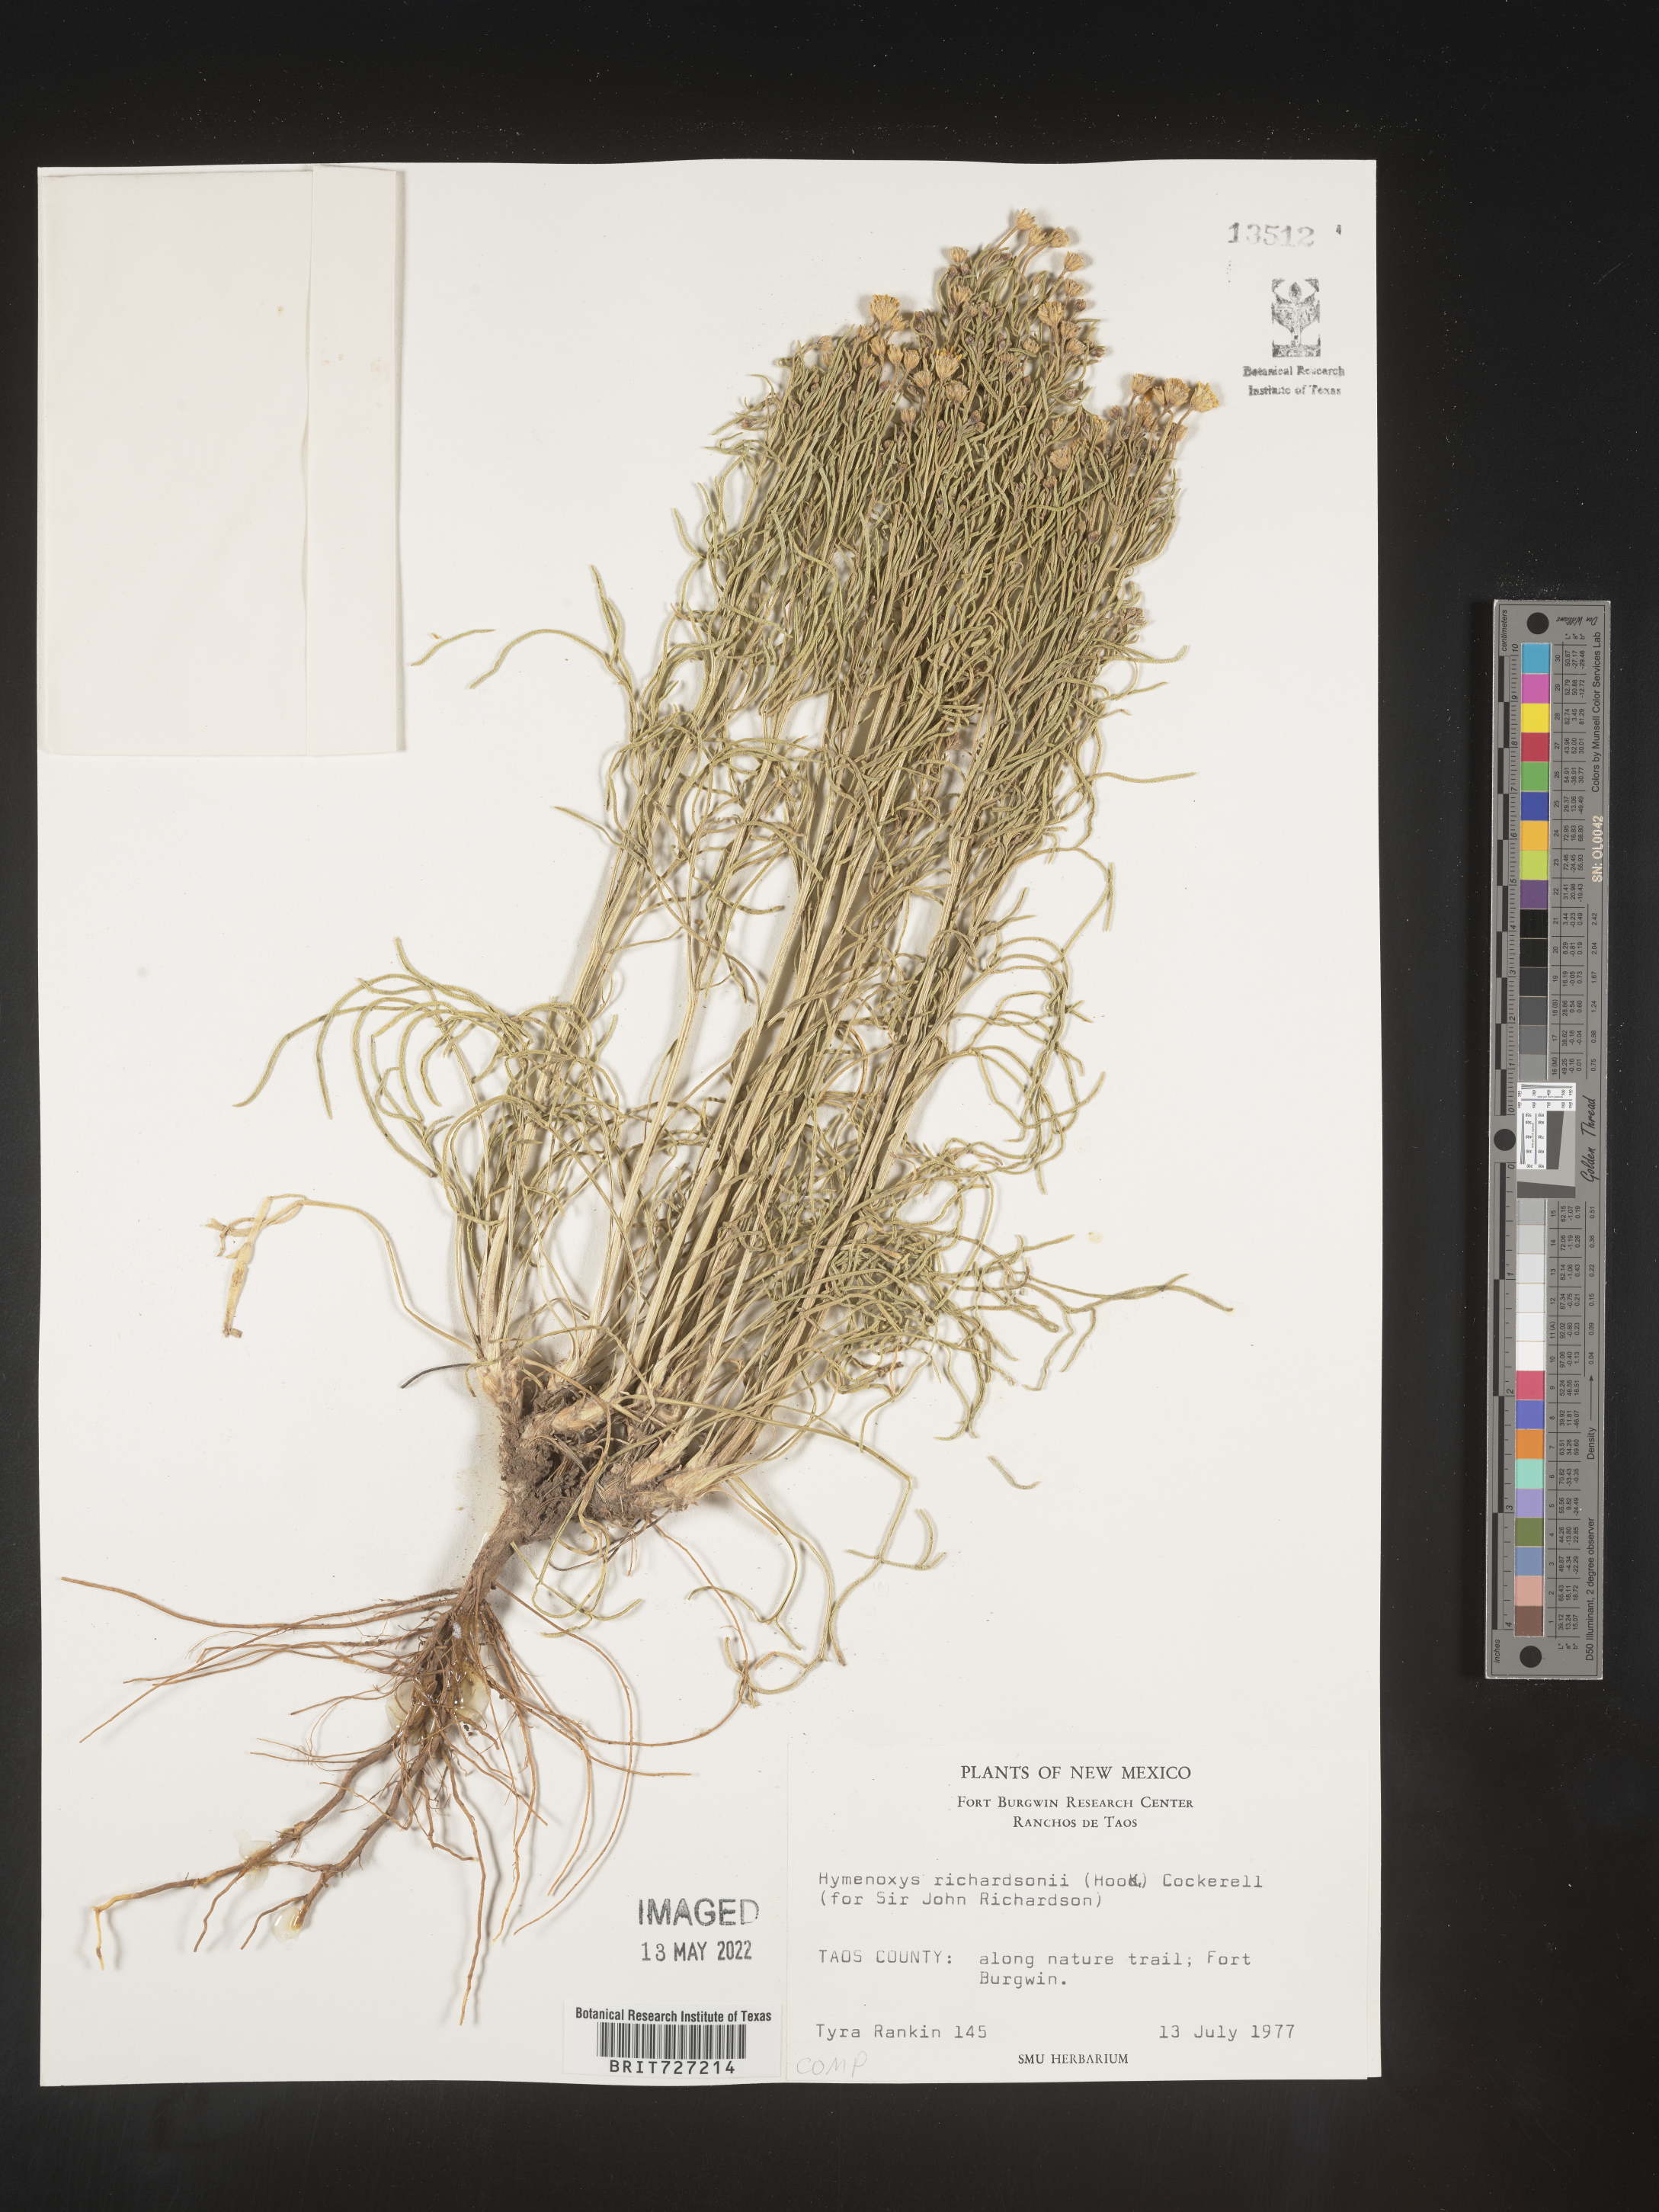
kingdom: Plantae
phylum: Tracheophyta
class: Magnoliopsida
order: Asterales
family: Asteraceae
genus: Hymenoxys
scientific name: Hymenoxys richardsonii
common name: Pingue rubberweed
